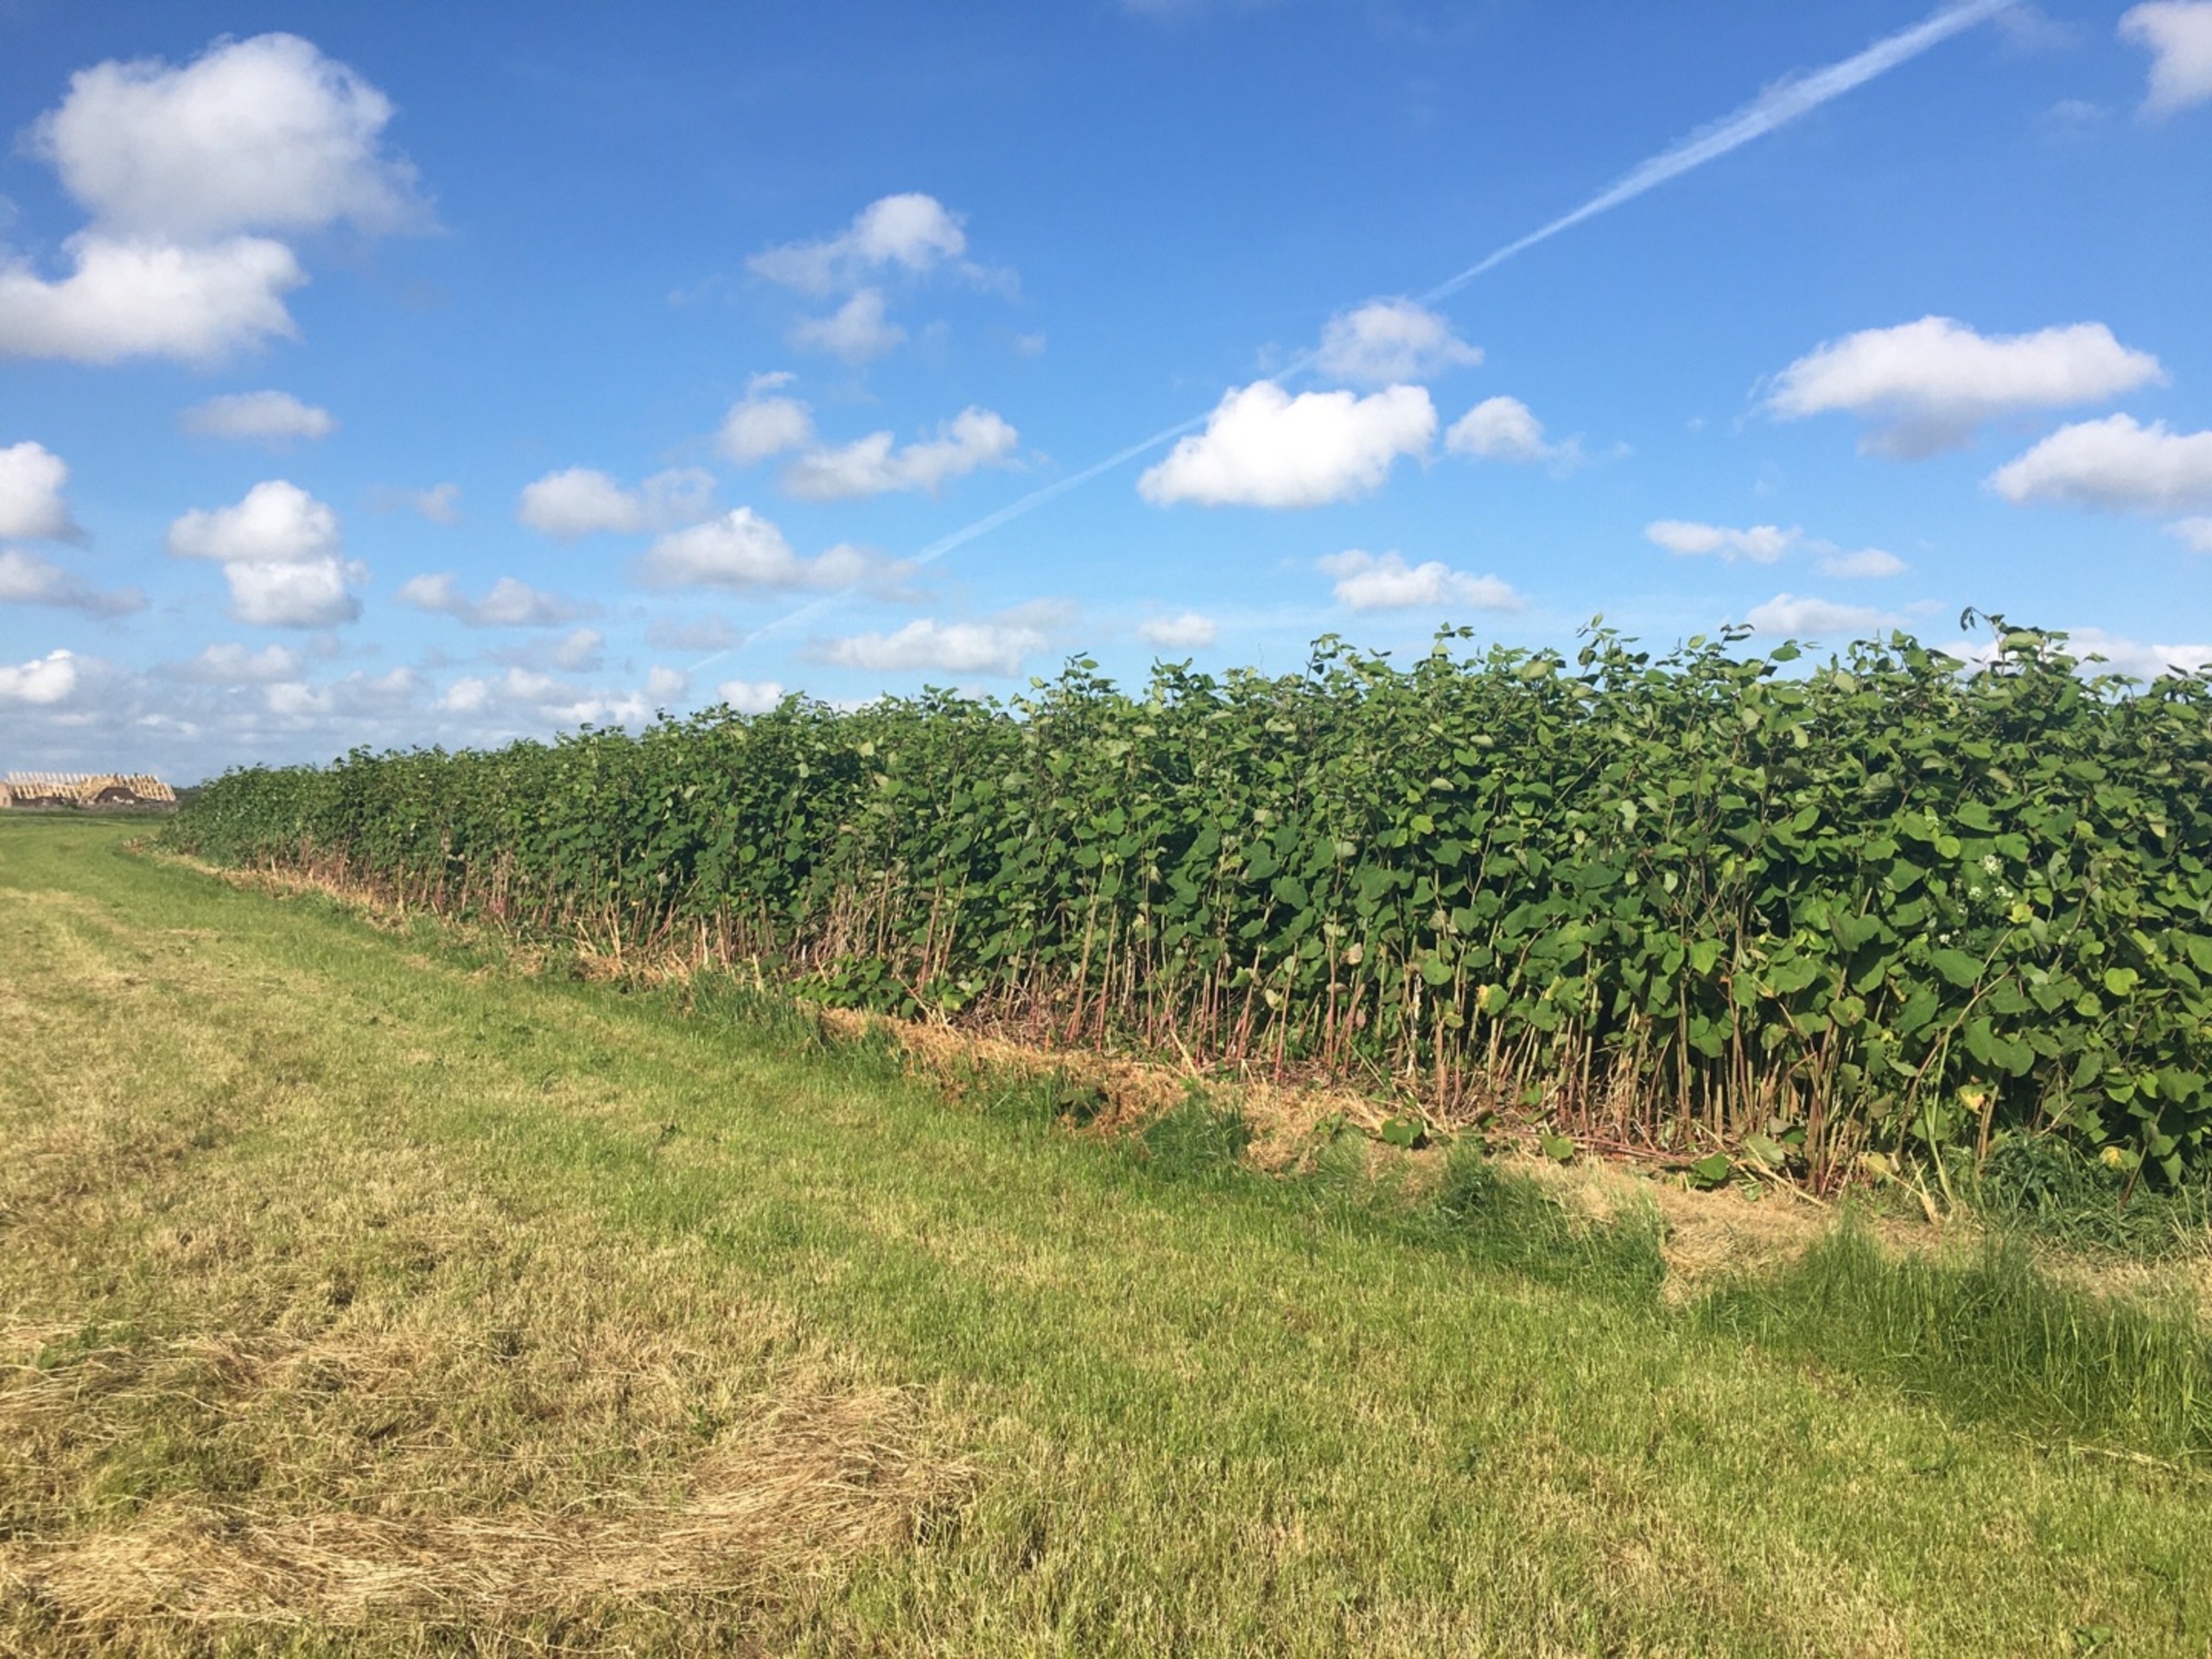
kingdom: Plantae
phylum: Tracheophyta
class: Magnoliopsida
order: Caryophyllales
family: Polygonaceae
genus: Reynoutria
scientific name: Reynoutria bohemica
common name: Hybrid-pileurt
